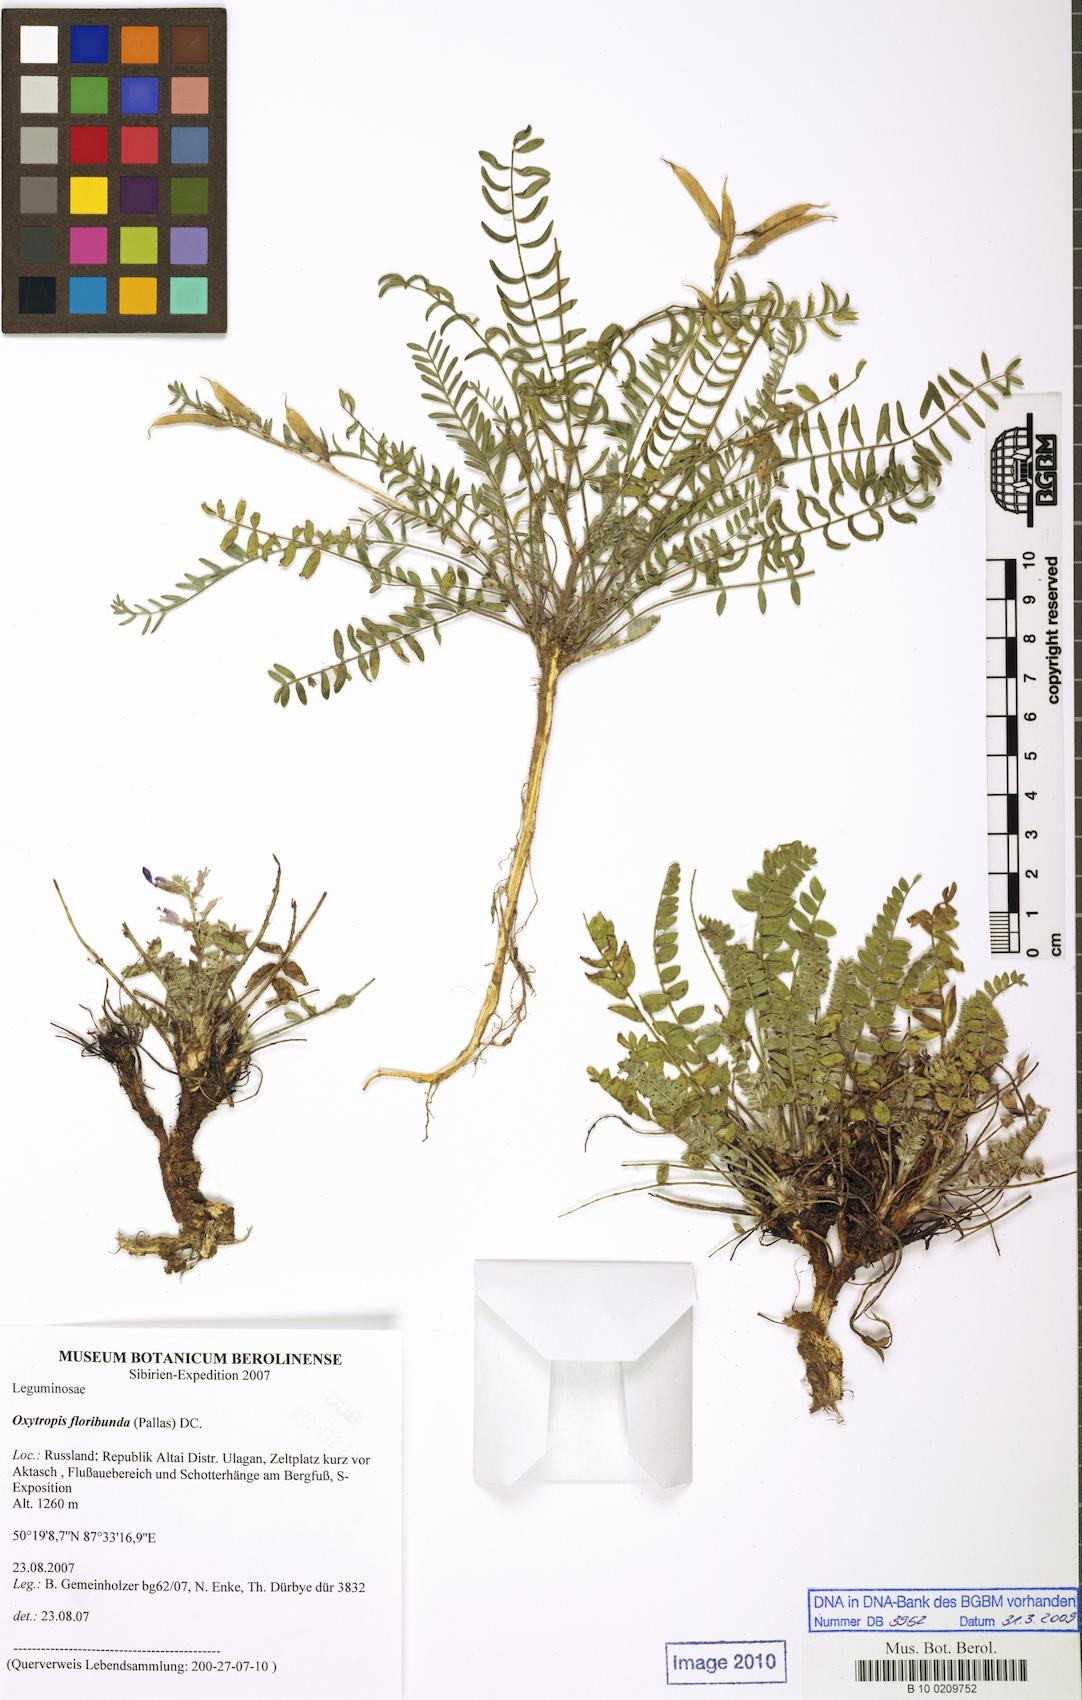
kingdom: Plantae
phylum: Tracheophyta
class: Magnoliopsida
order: Fabales
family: Fabaceae
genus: Oxytropis
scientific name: Oxytropis floribunda
